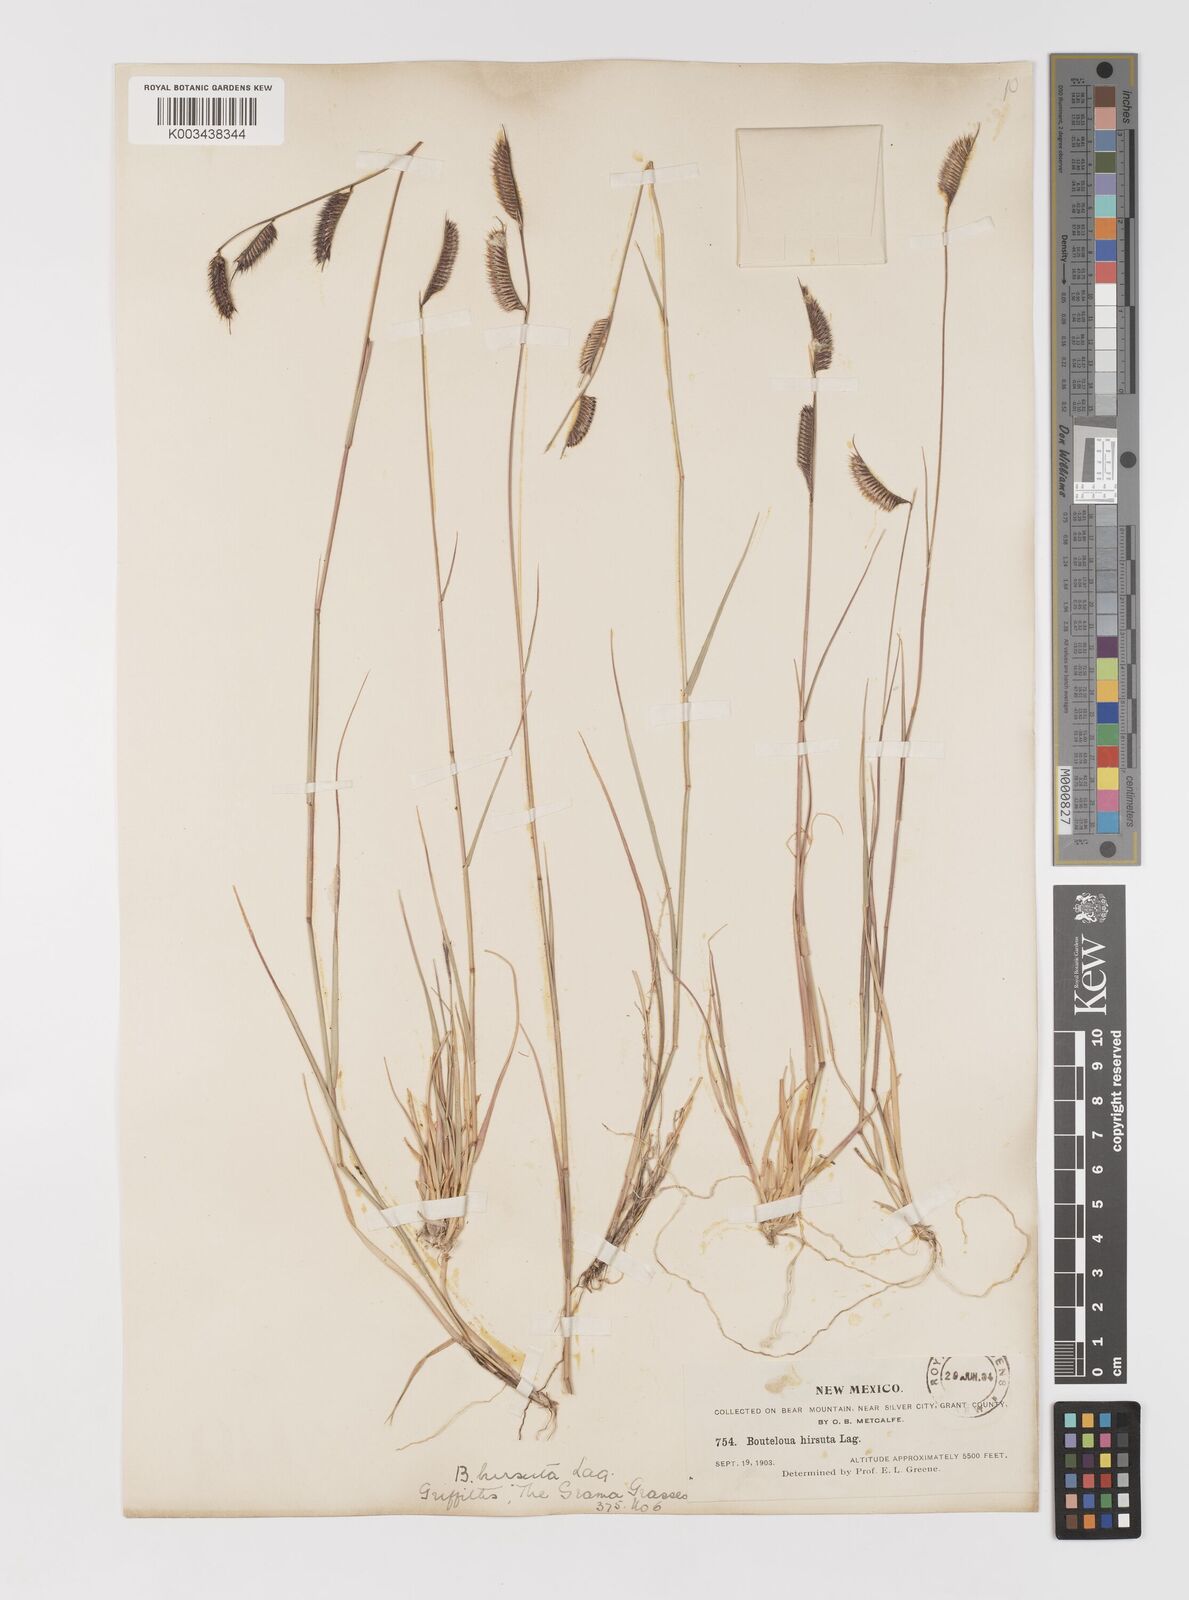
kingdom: Plantae
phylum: Tracheophyta
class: Liliopsida
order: Poales
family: Poaceae
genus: Bouteloua
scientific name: Bouteloua hirsuta
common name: Hairy grama
